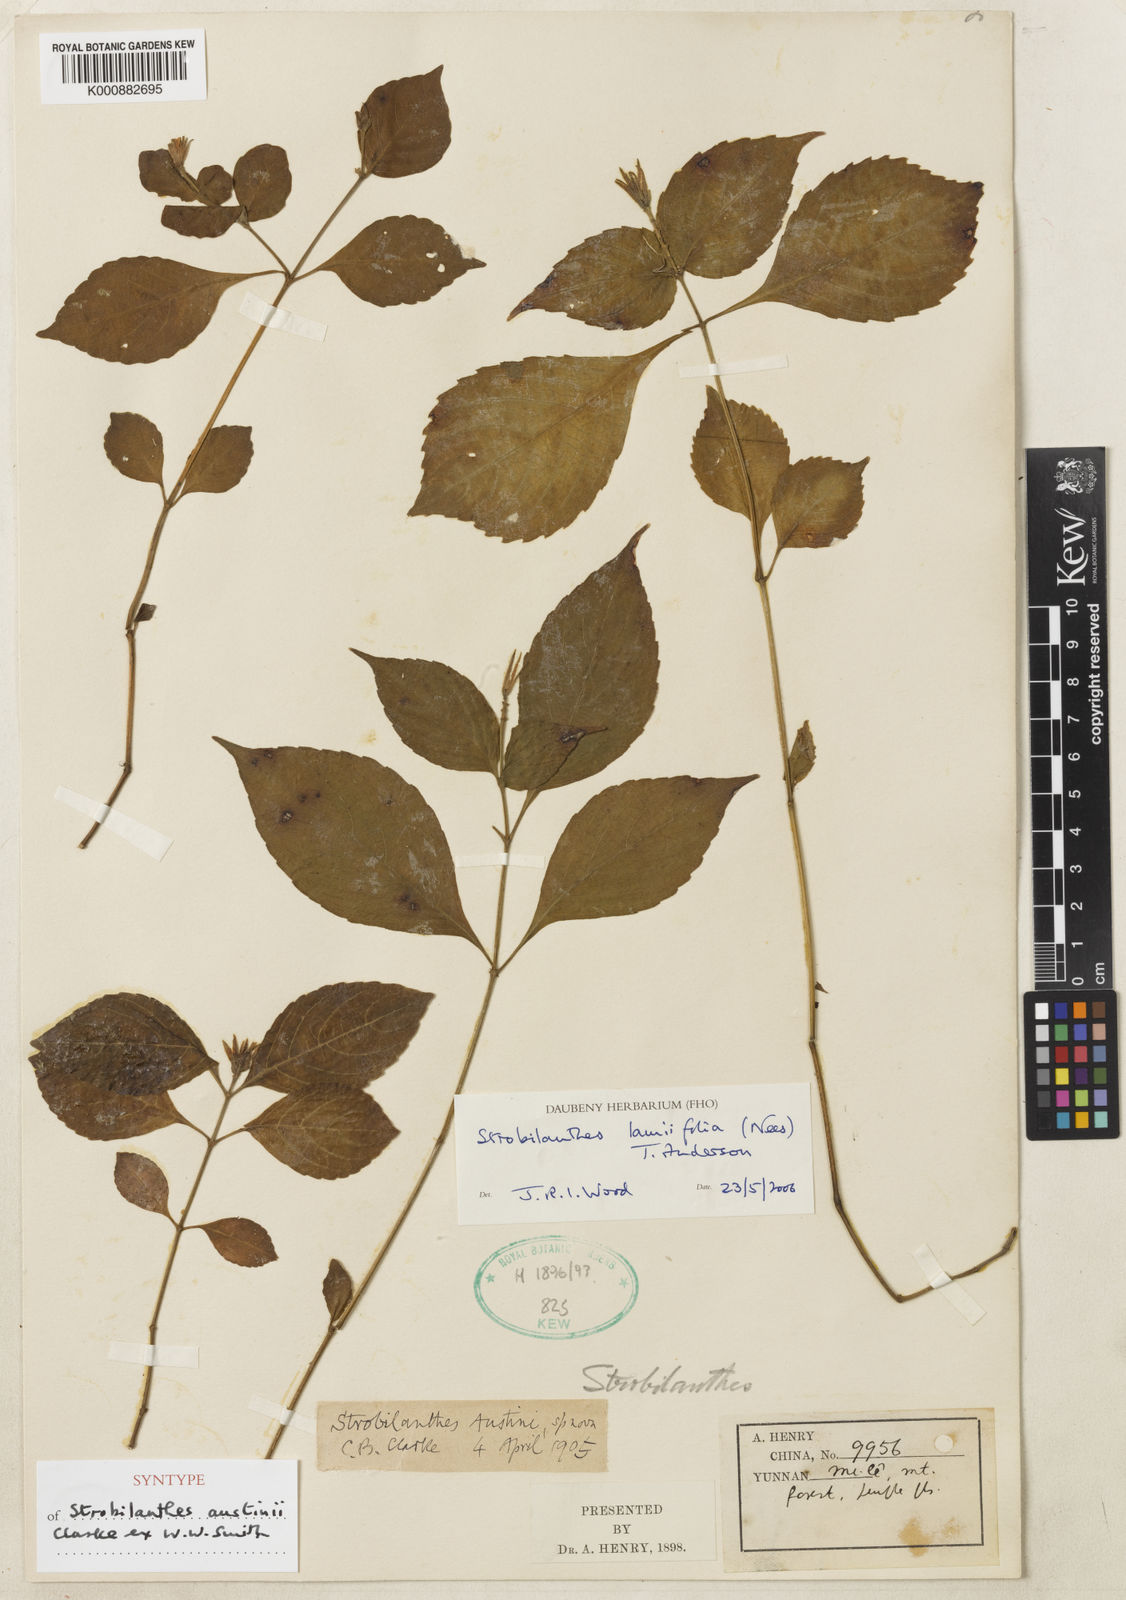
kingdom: Plantae
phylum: Tracheophyta
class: Magnoliopsida
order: Lamiales
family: Acanthaceae
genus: Strobilanthes
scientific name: Strobilanthes lamiifolia
